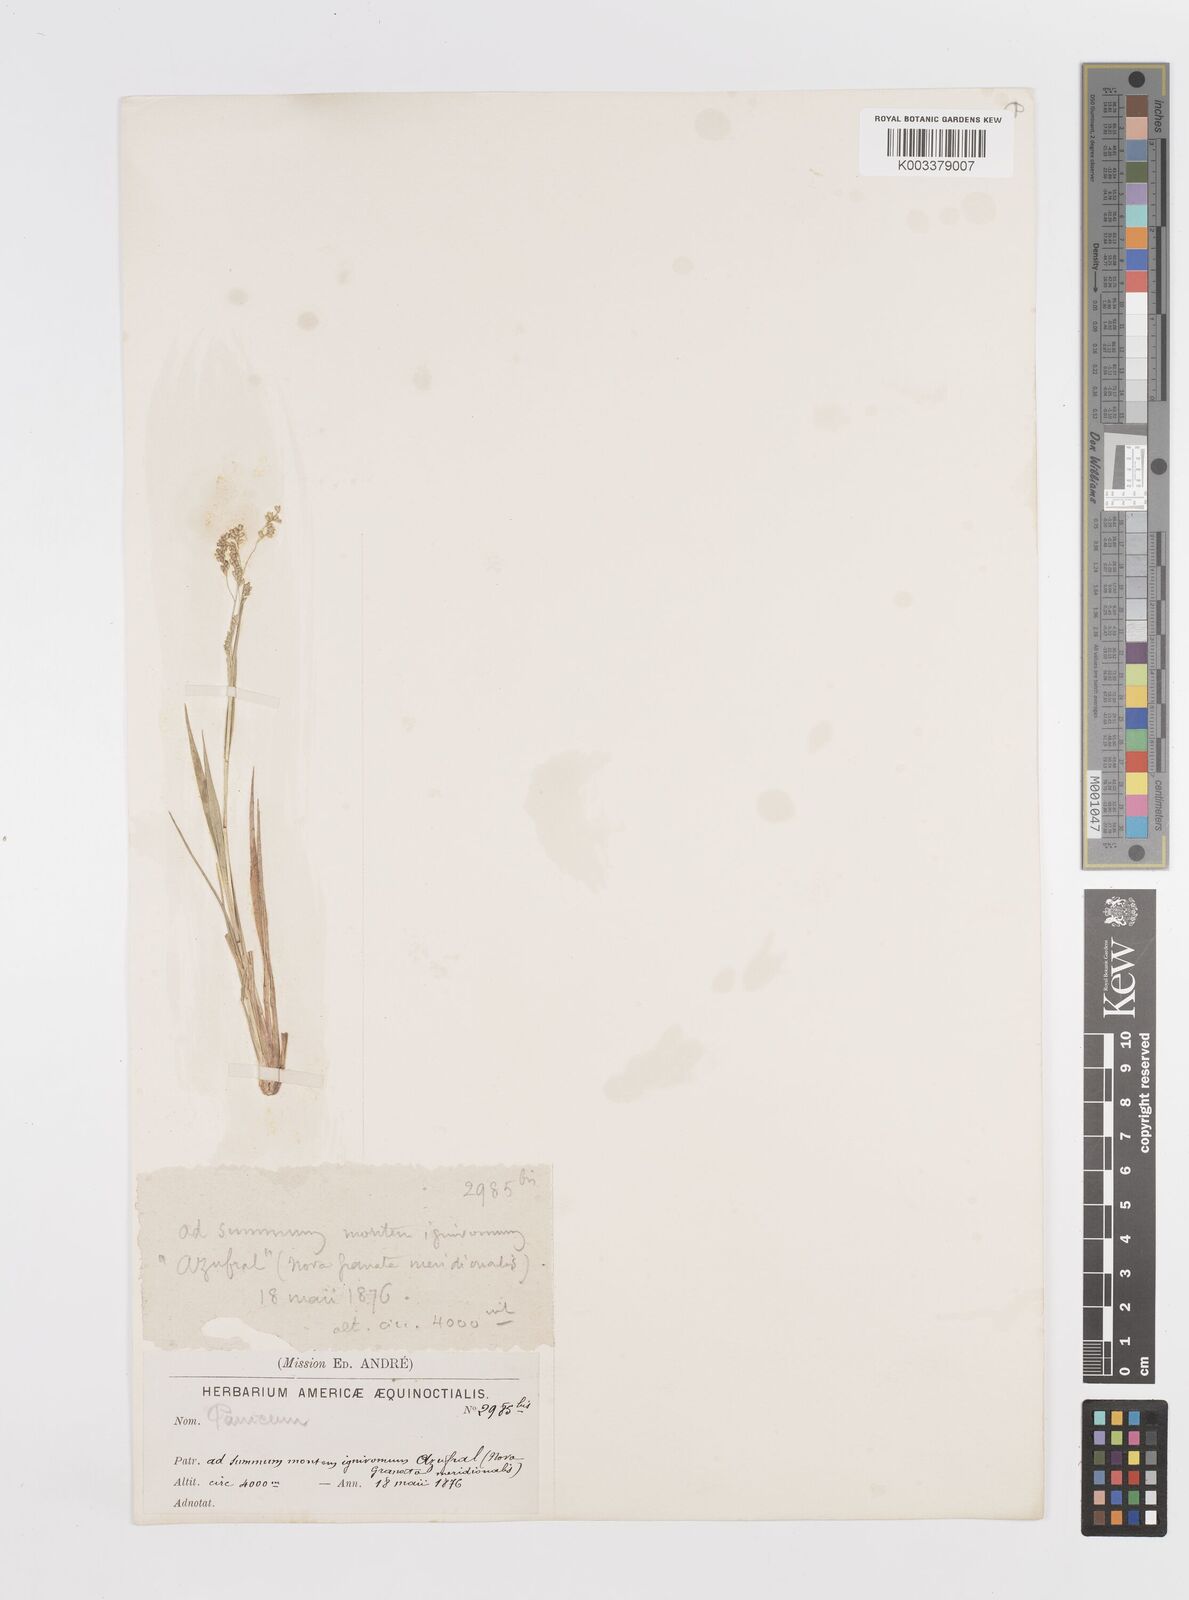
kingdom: Plantae
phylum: Tracheophyta
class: Liliopsida
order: Poales
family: Poaceae
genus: Steinchisma
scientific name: Steinchisma hians
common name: Gaping panic grass
